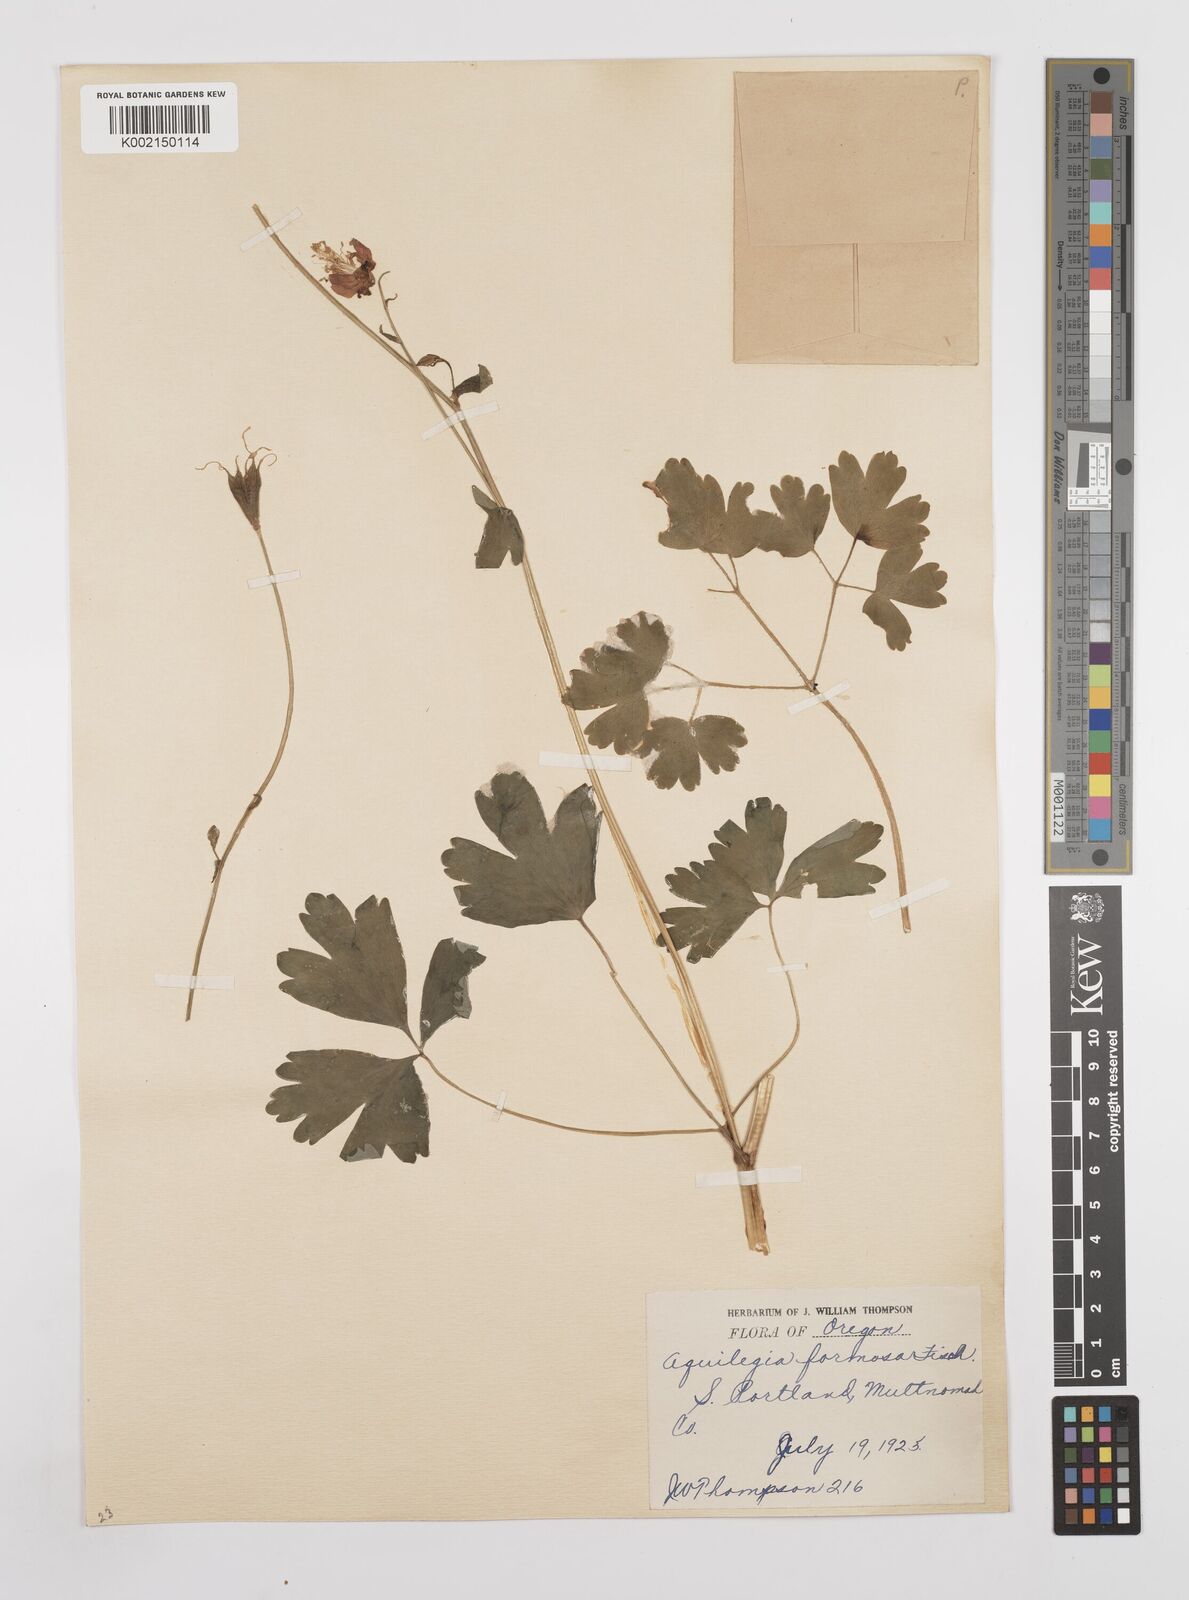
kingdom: Plantae
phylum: Tracheophyta
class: Magnoliopsida
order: Ranunculales
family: Ranunculaceae
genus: Aquilegia
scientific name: Aquilegia
